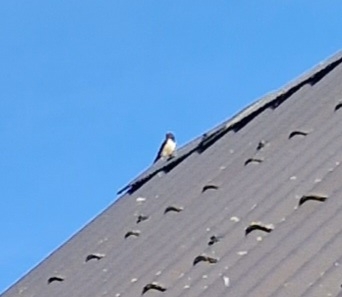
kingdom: Animalia
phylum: Chordata
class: Aves
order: Passeriformes
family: Hirundinidae
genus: Hirundo
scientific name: Hirundo rustica
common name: Landsvale
